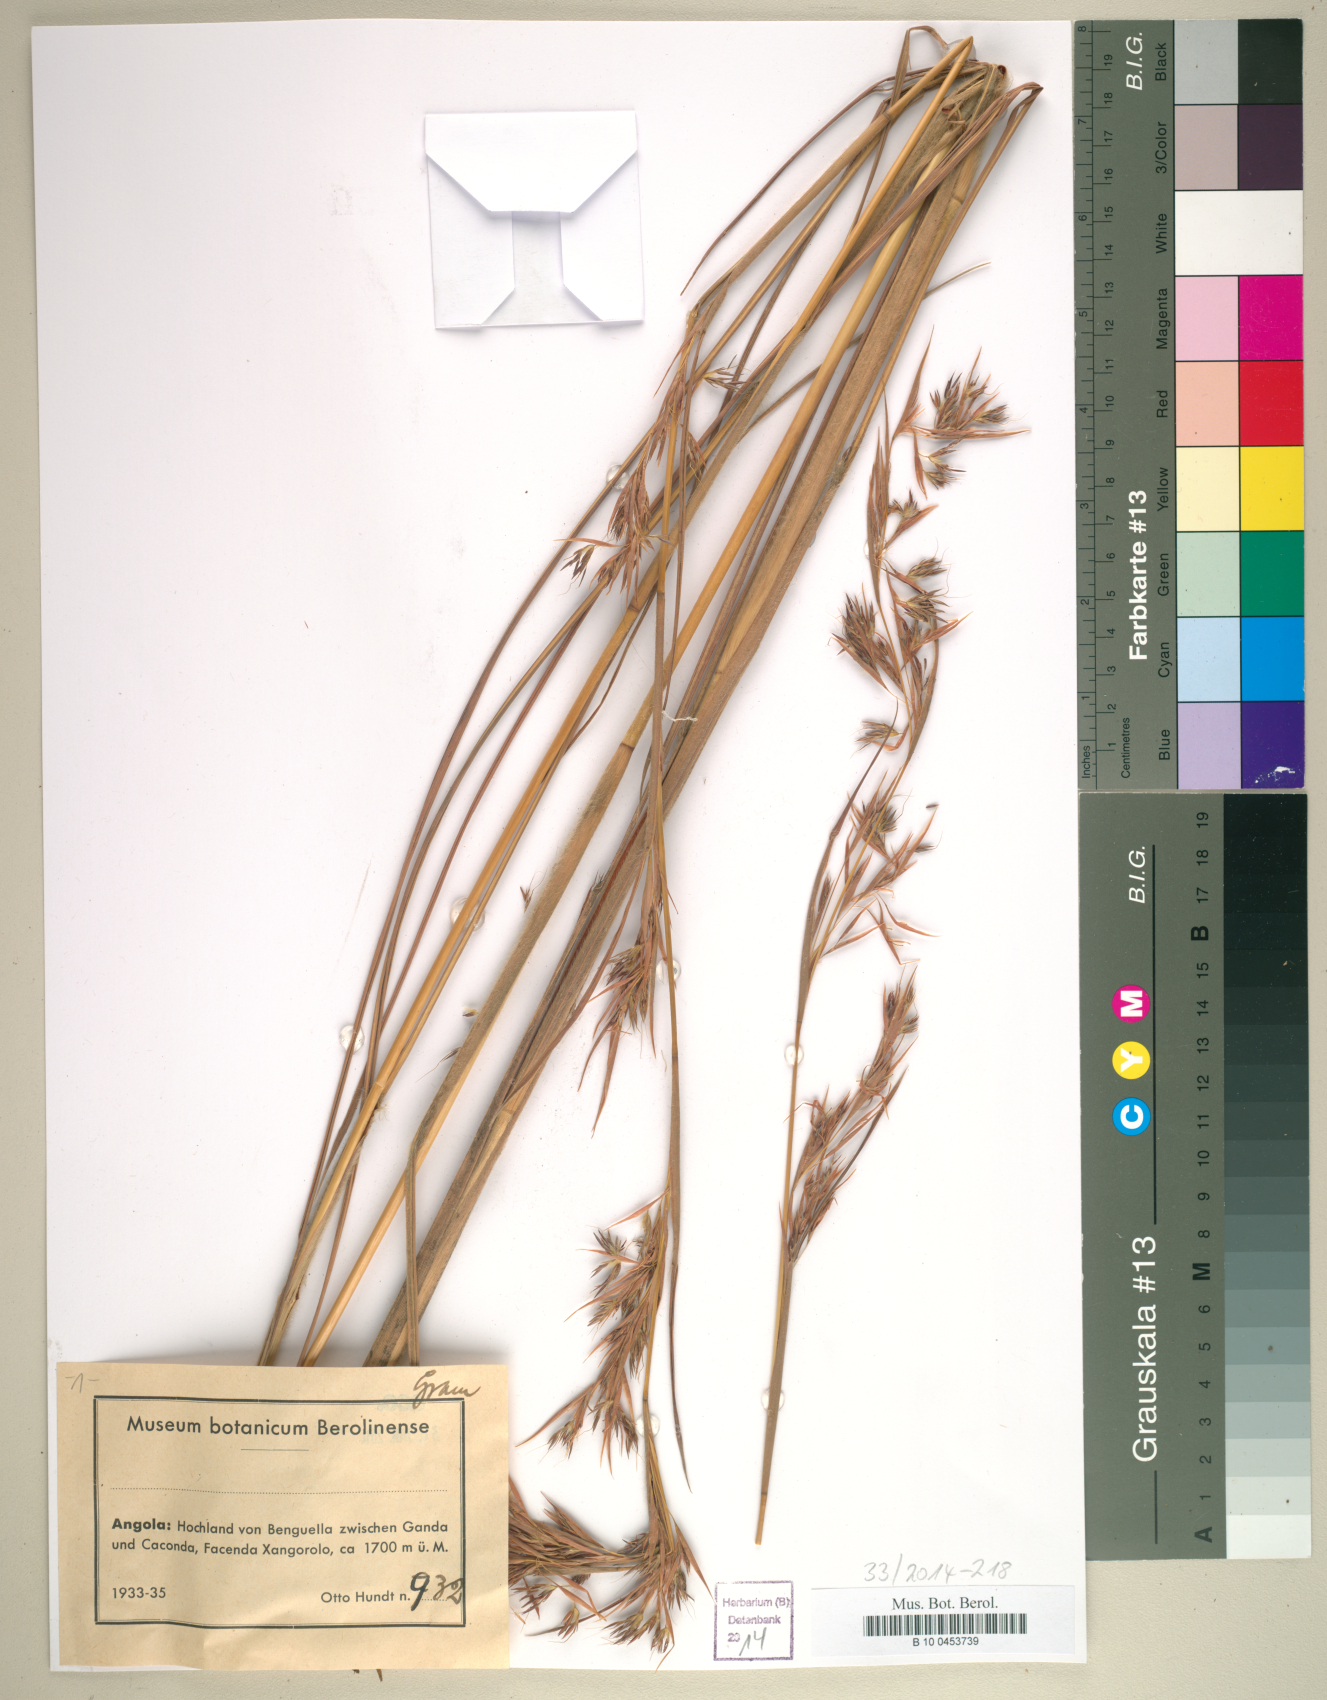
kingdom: Plantae
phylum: Tracheophyta
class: Liliopsida
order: Poales
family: Poaceae
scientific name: Poaceae
